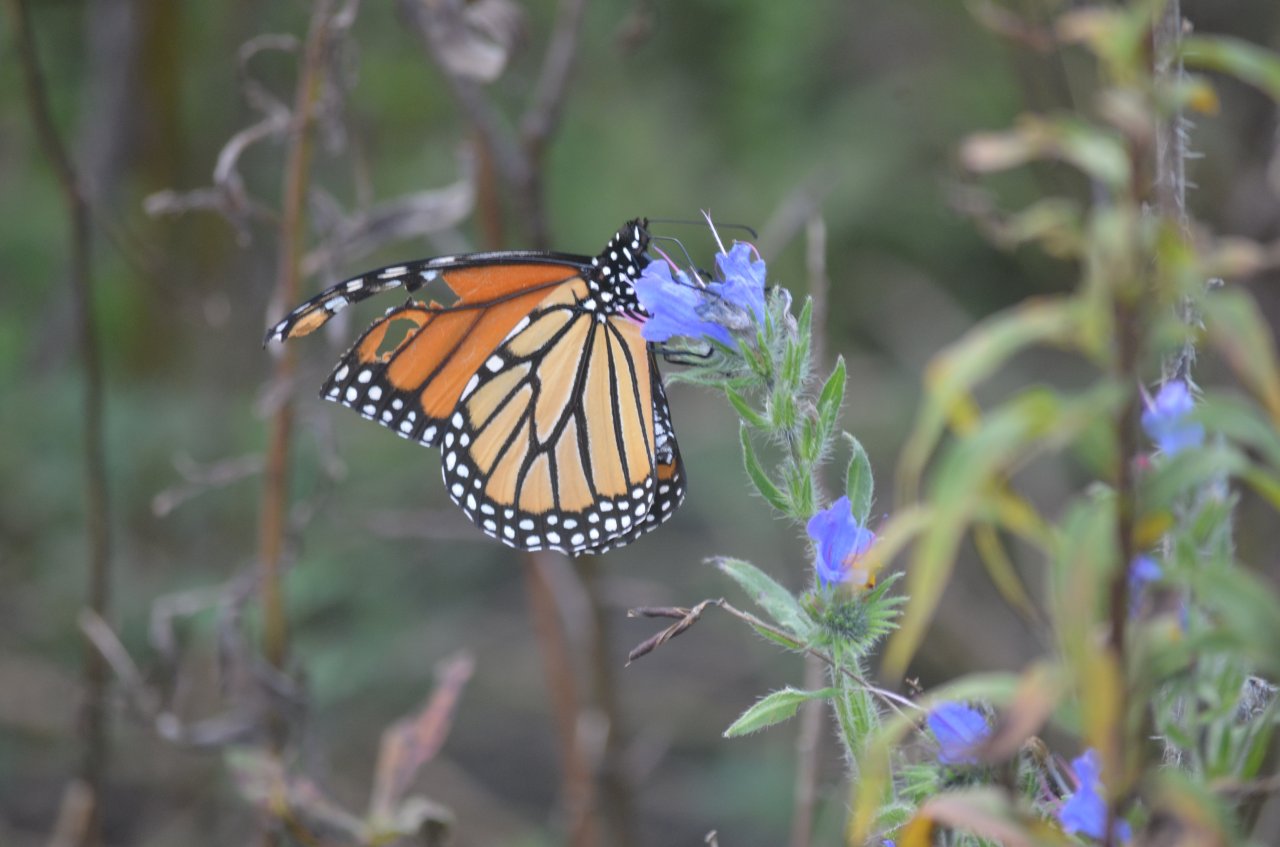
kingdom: Animalia
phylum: Arthropoda
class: Insecta
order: Lepidoptera
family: Nymphalidae
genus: Danaus
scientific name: Danaus plexippus
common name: Monarch
